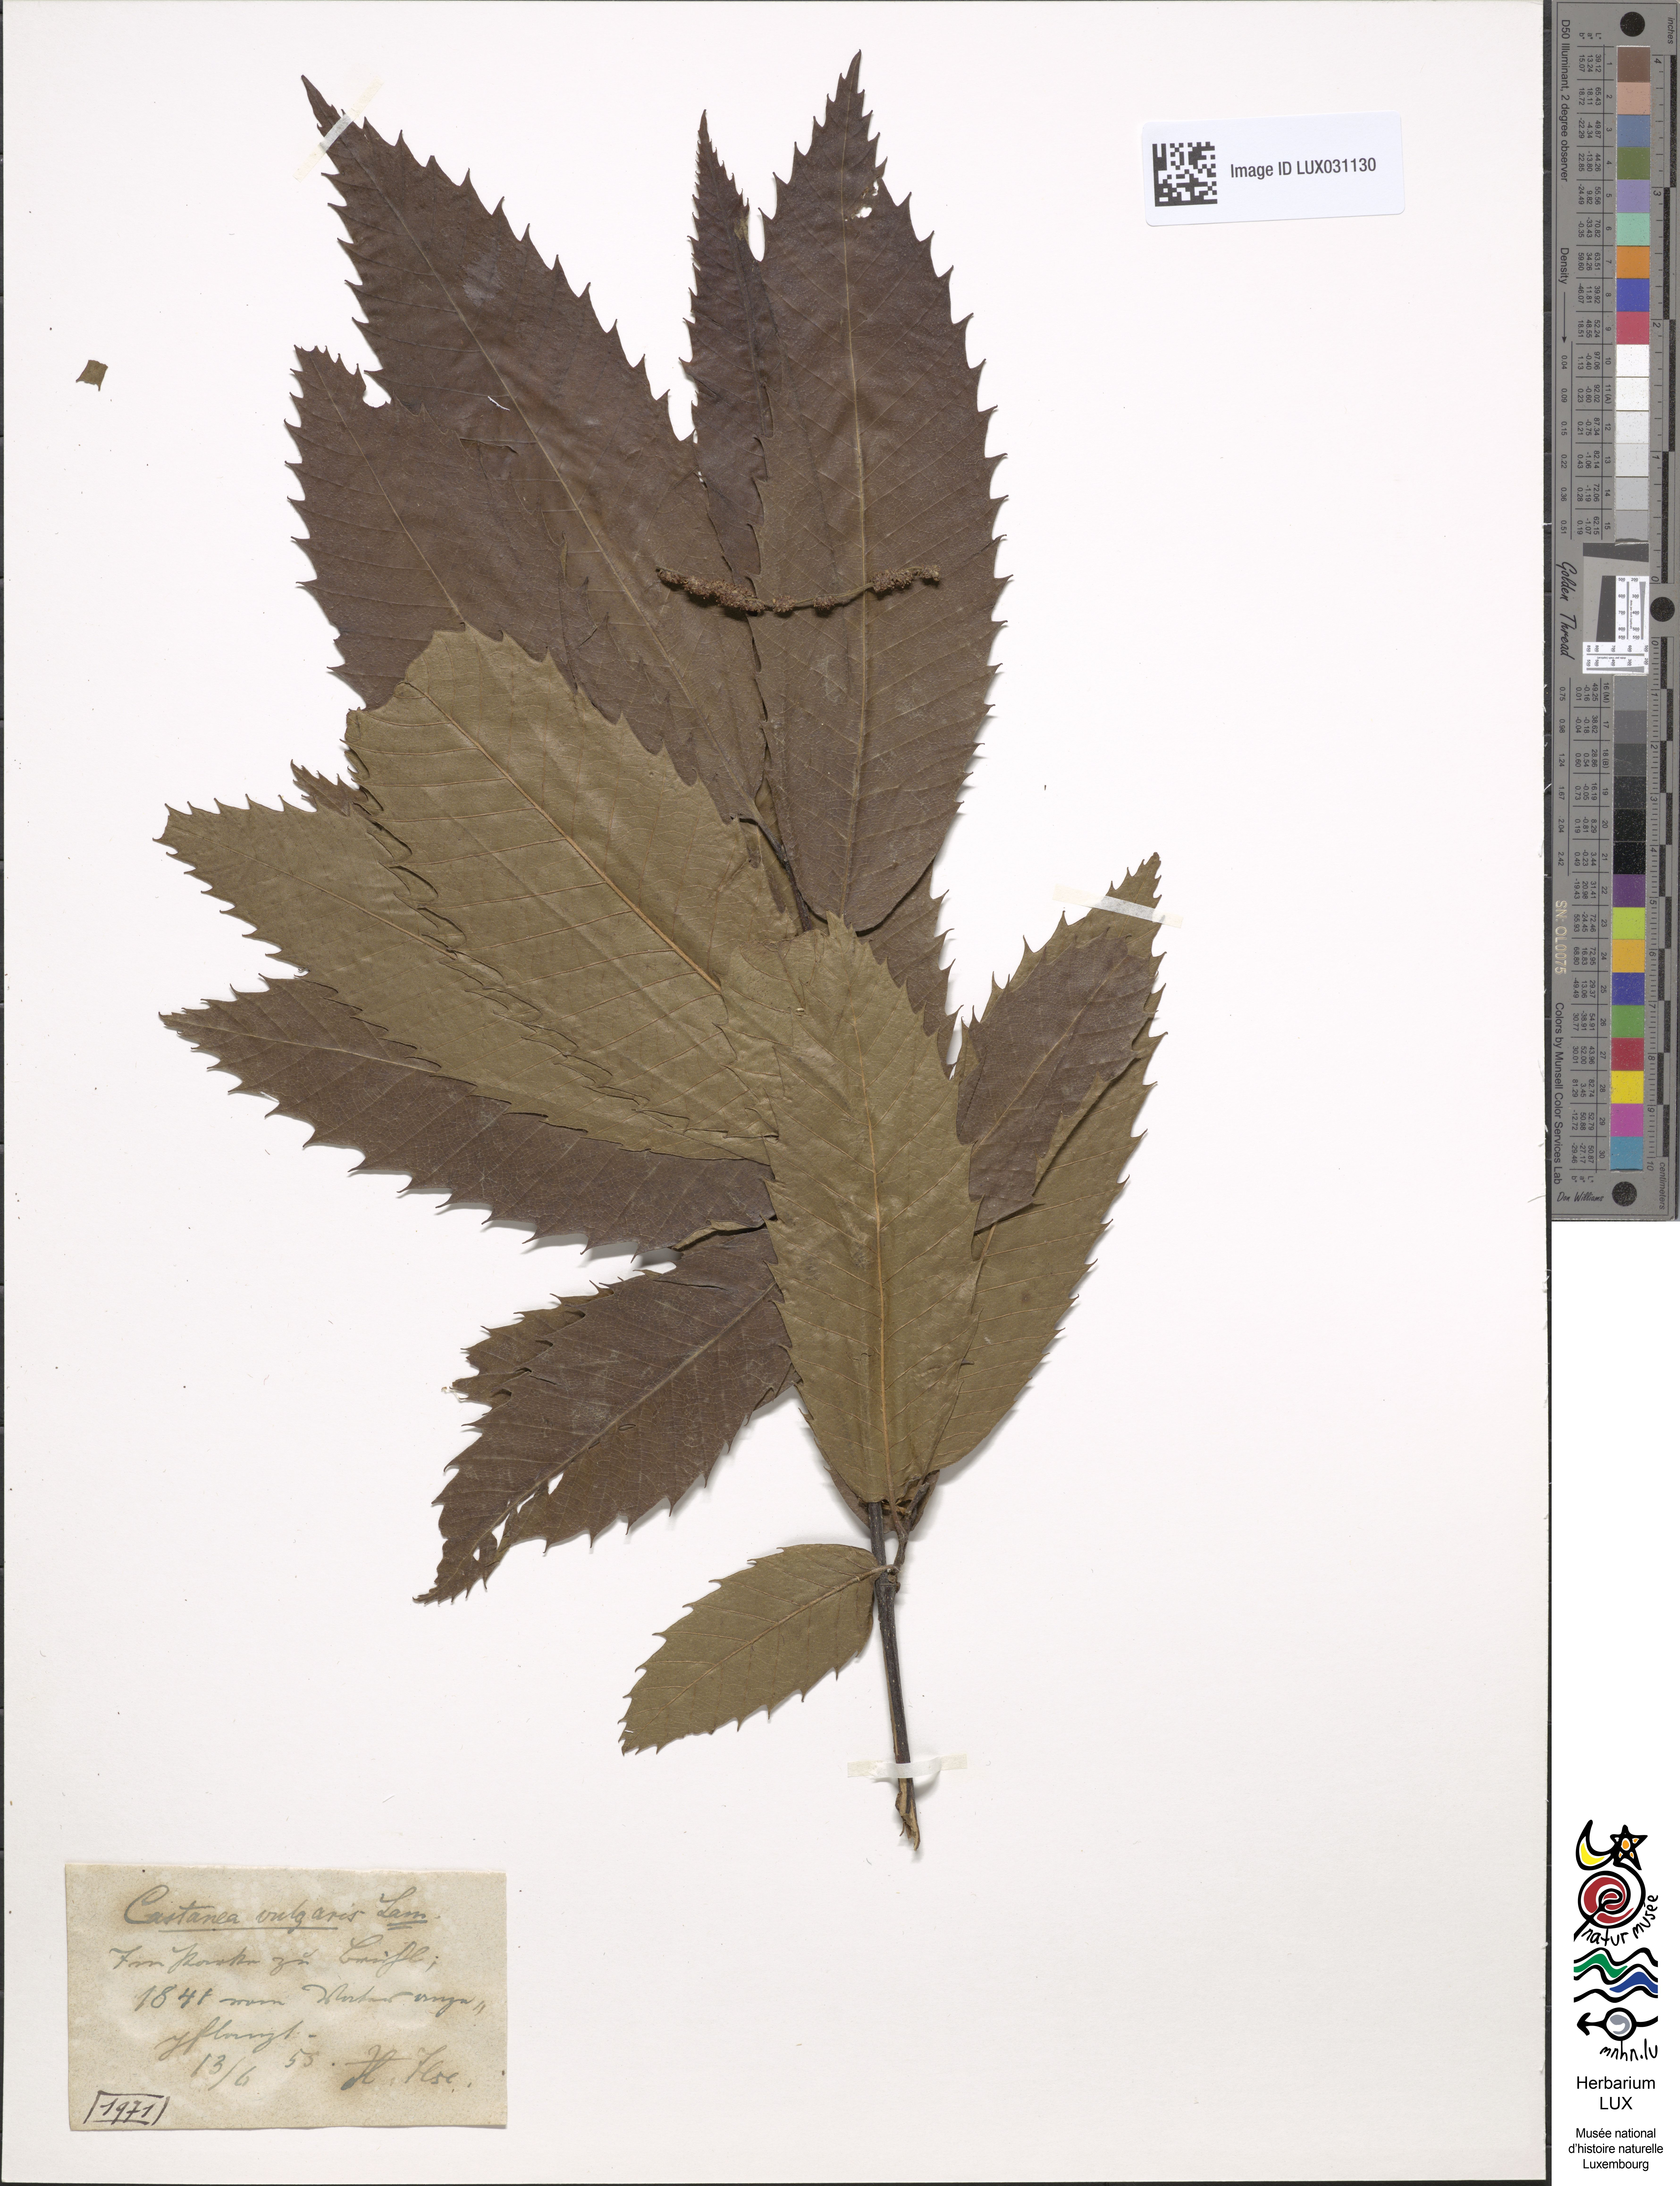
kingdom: Plantae
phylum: Tracheophyta
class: Magnoliopsida
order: Fagales
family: Fagaceae
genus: Castanea
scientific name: Castanea sativa
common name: Sweet chestnut
